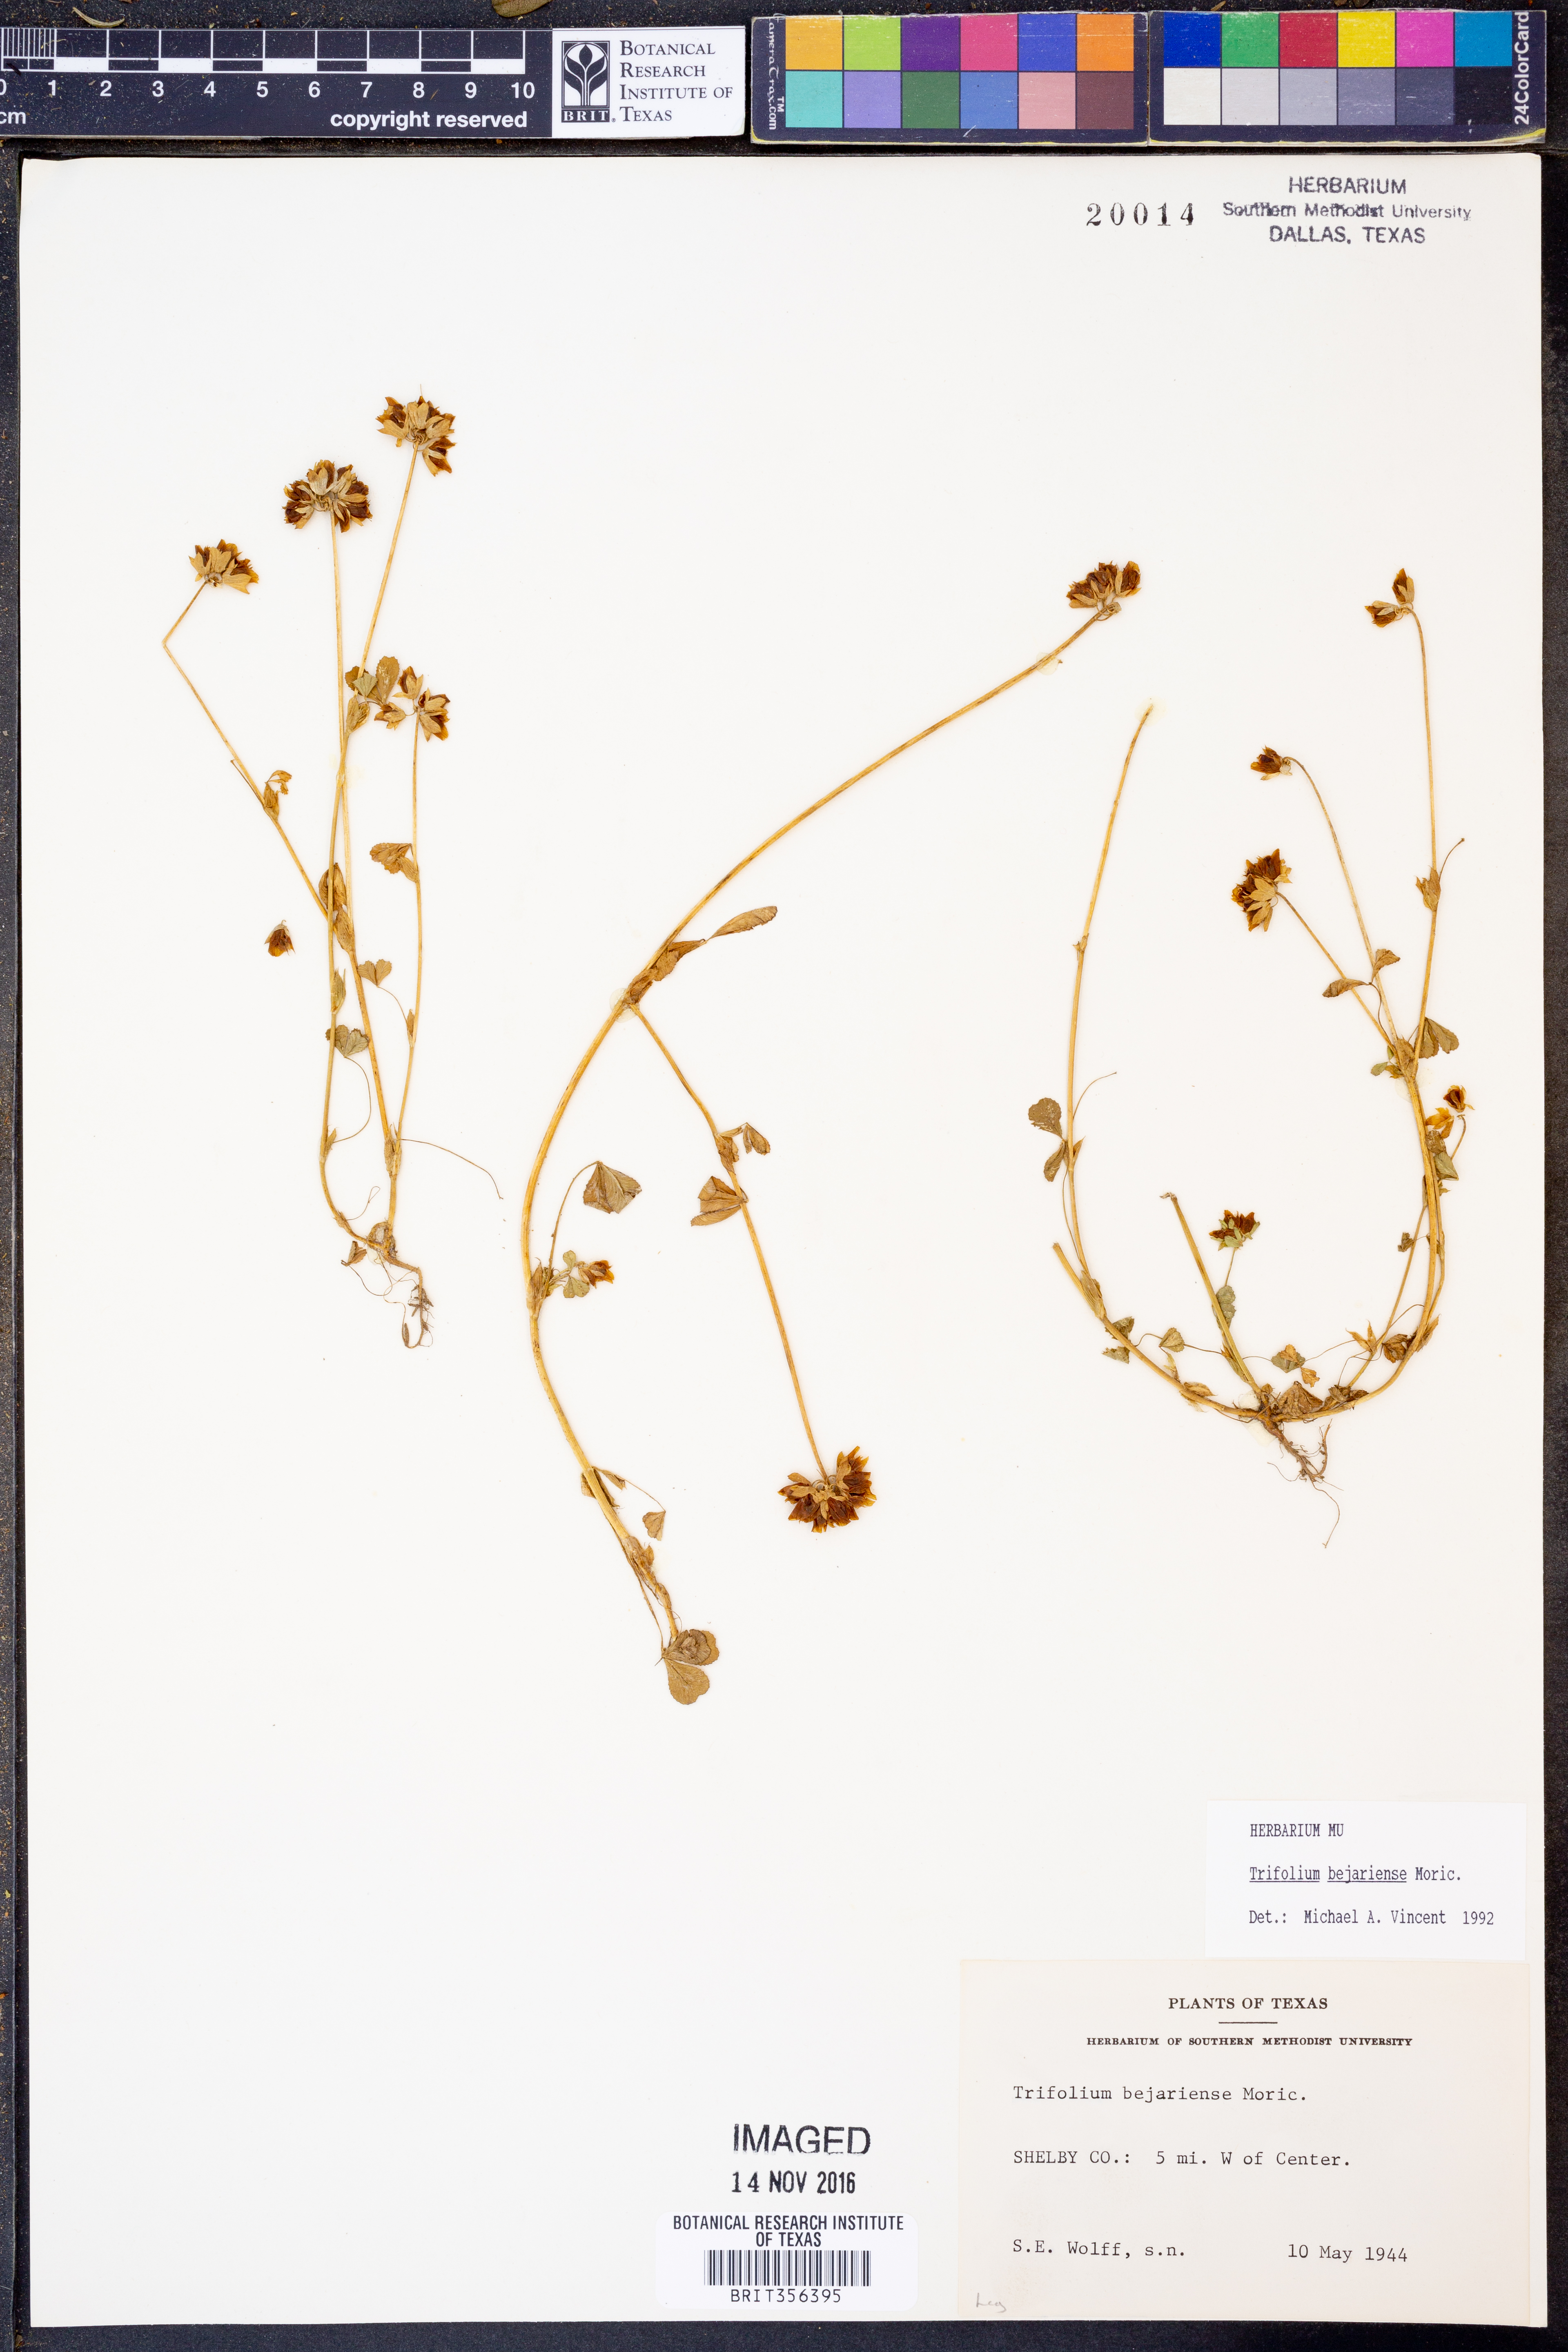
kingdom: Plantae
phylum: Tracheophyta
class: Magnoliopsida
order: Fabales
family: Fabaceae
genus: Trifolium
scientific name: Trifolium bejariense
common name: Bejar clover
